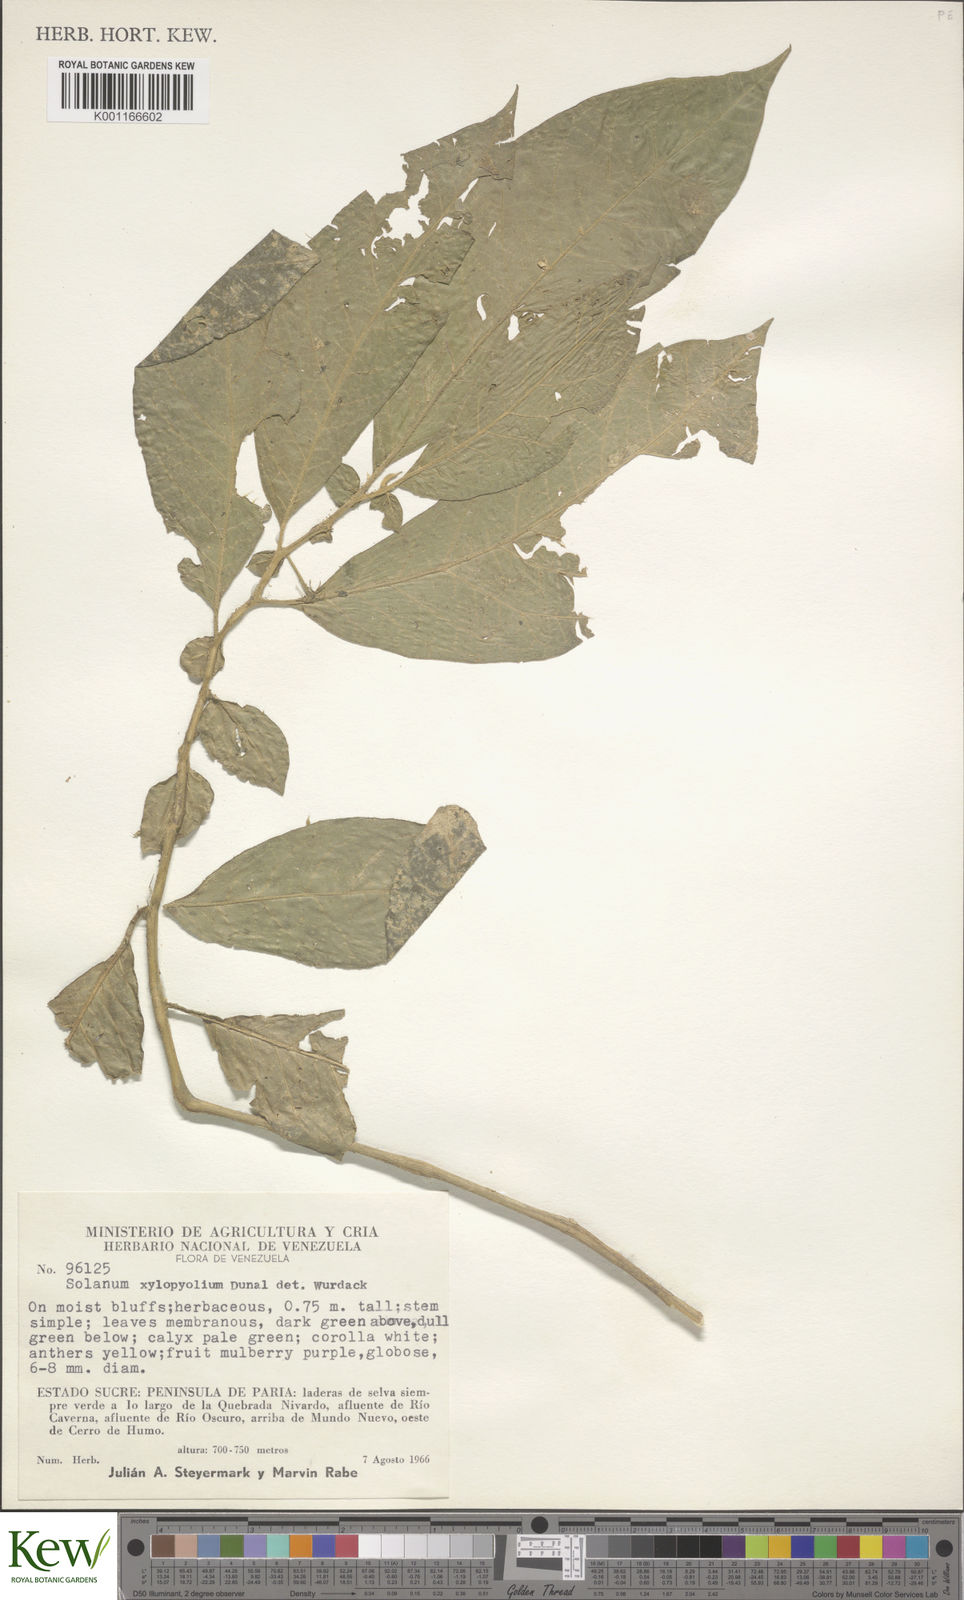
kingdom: Plantae
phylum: Tracheophyta
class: Magnoliopsida
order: Solanales
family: Solanaceae
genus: Lycianthes
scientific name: Lycianthes acutifolia
